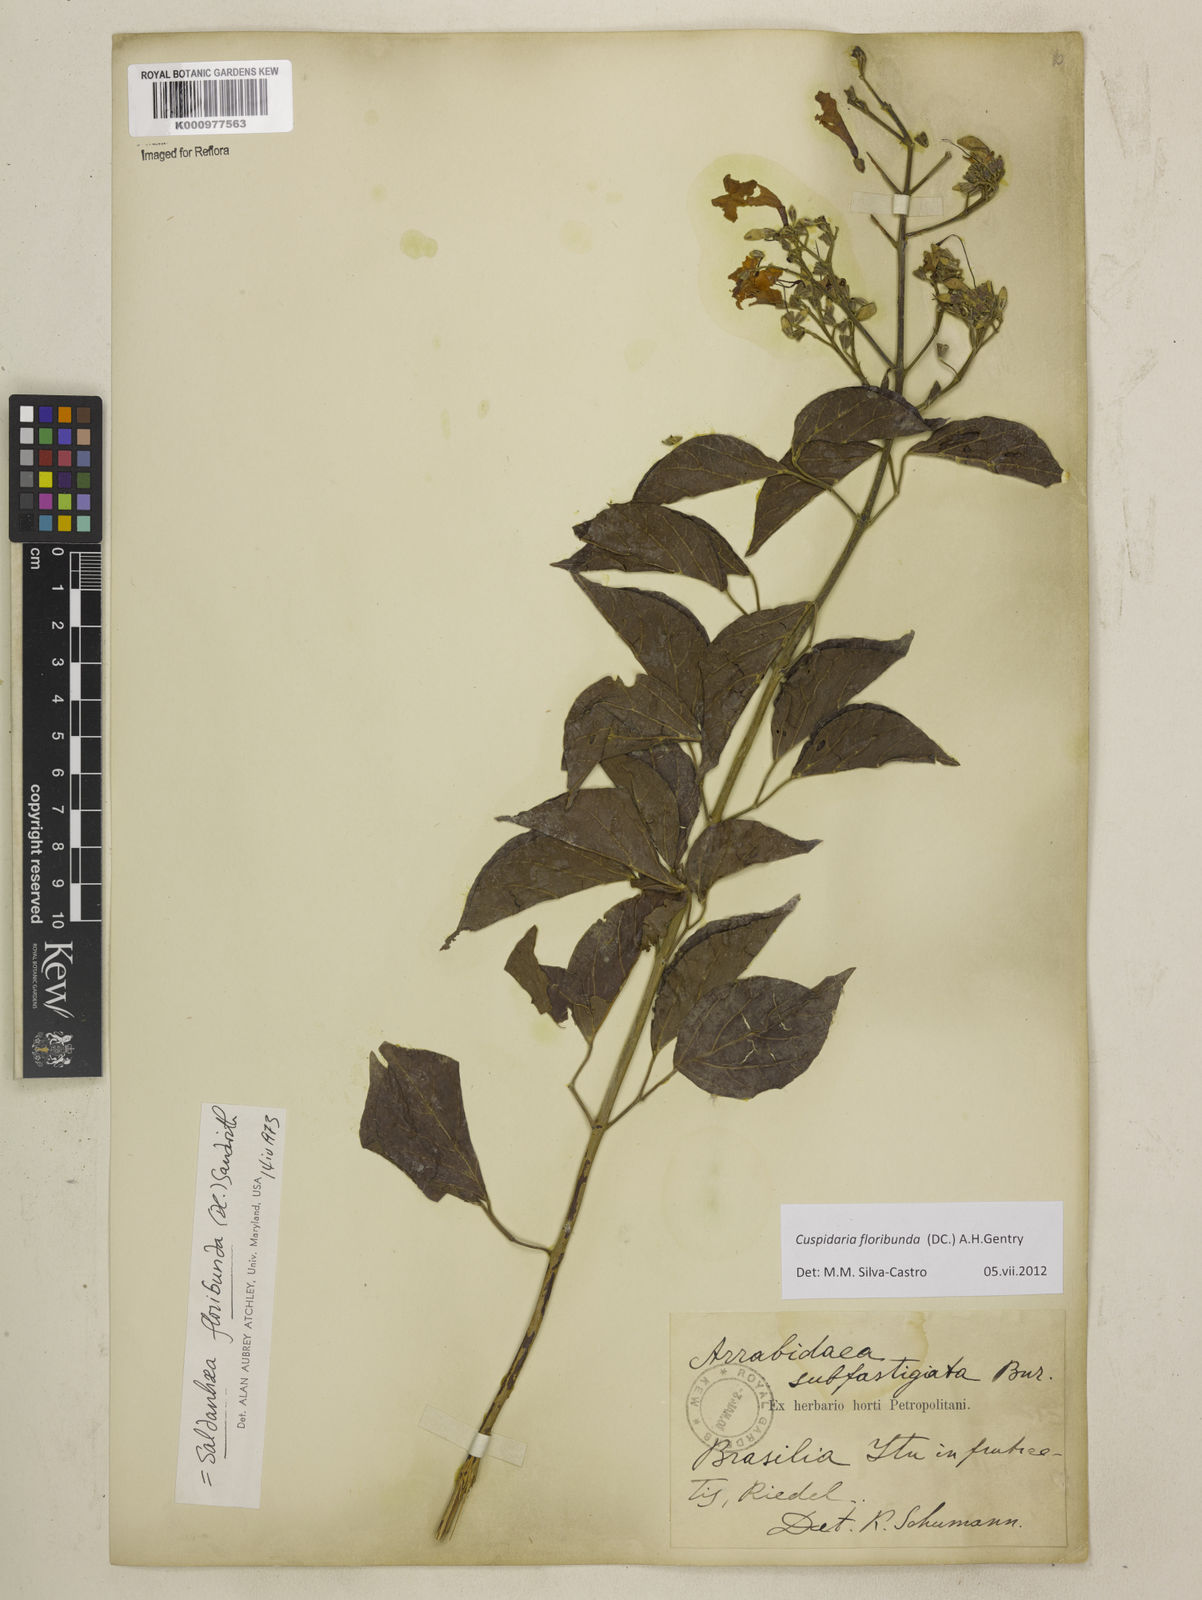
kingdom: Plantae
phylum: Tracheophyta
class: Magnoliopsida
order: Lamiales
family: Bignoniaceae
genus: Cuspidaria
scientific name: Cuspidaria floribunda
